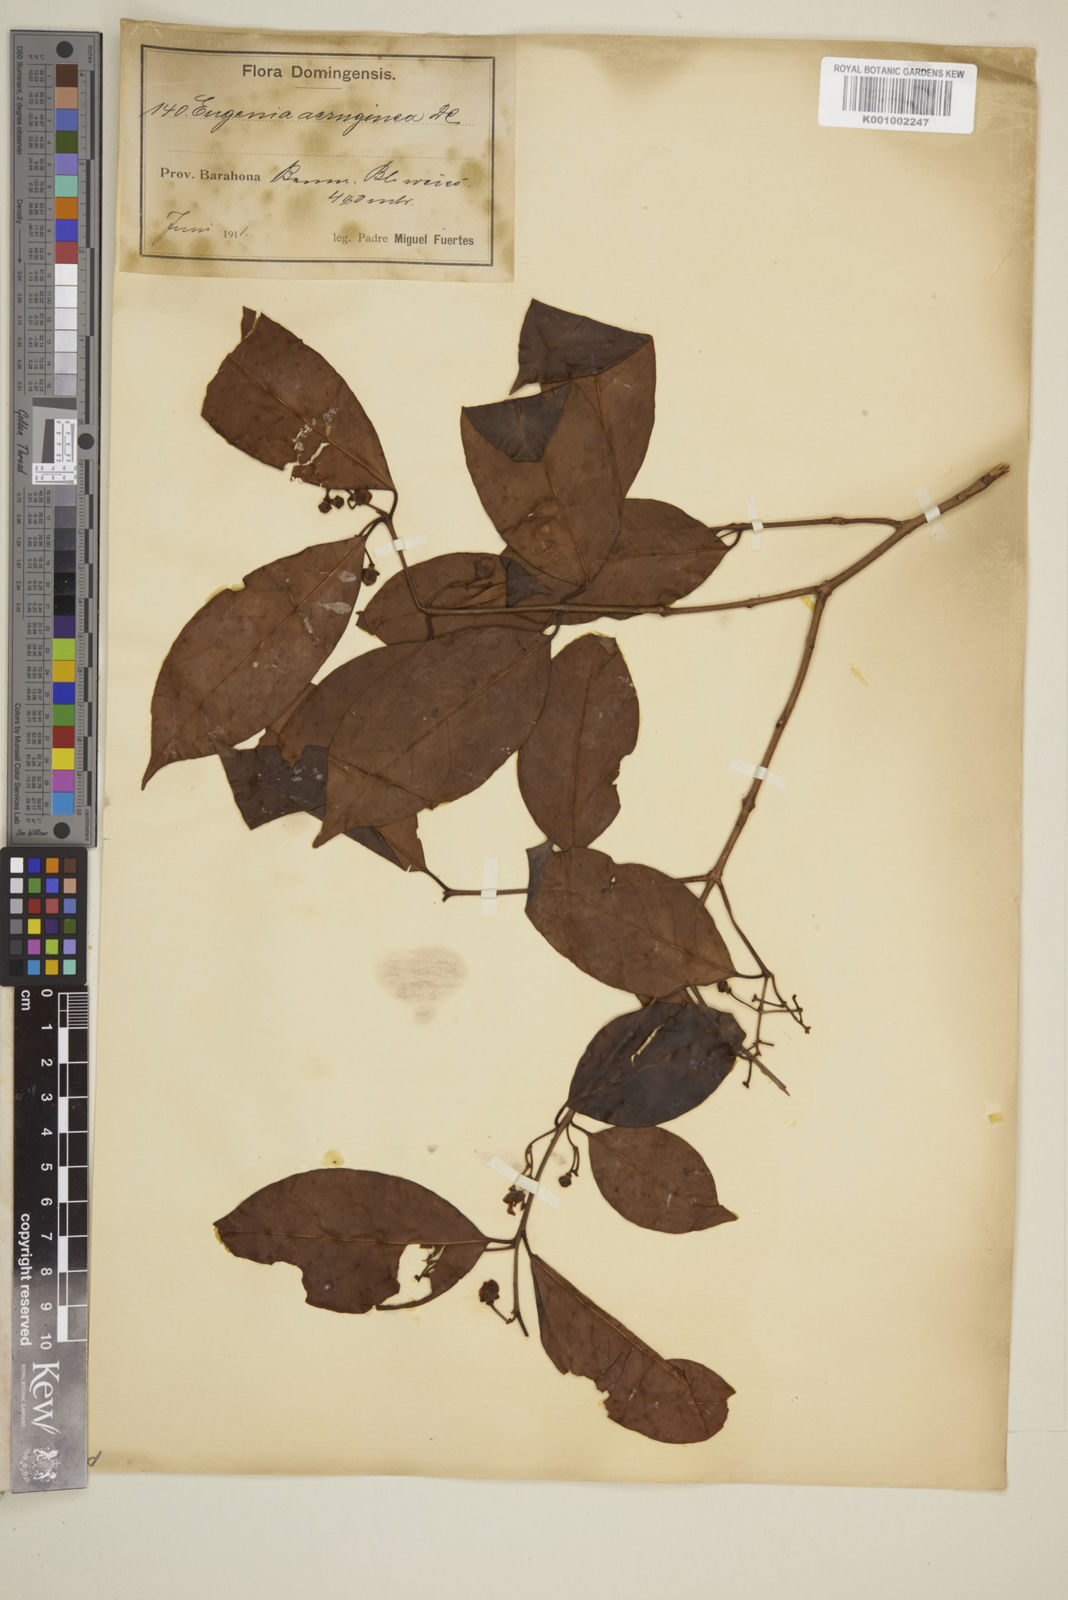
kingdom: Plantae
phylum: Tracheophyta
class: Magnoliopsida
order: Myrtales
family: Myrtaceae
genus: Eugenia
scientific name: Eugenia domingensis
